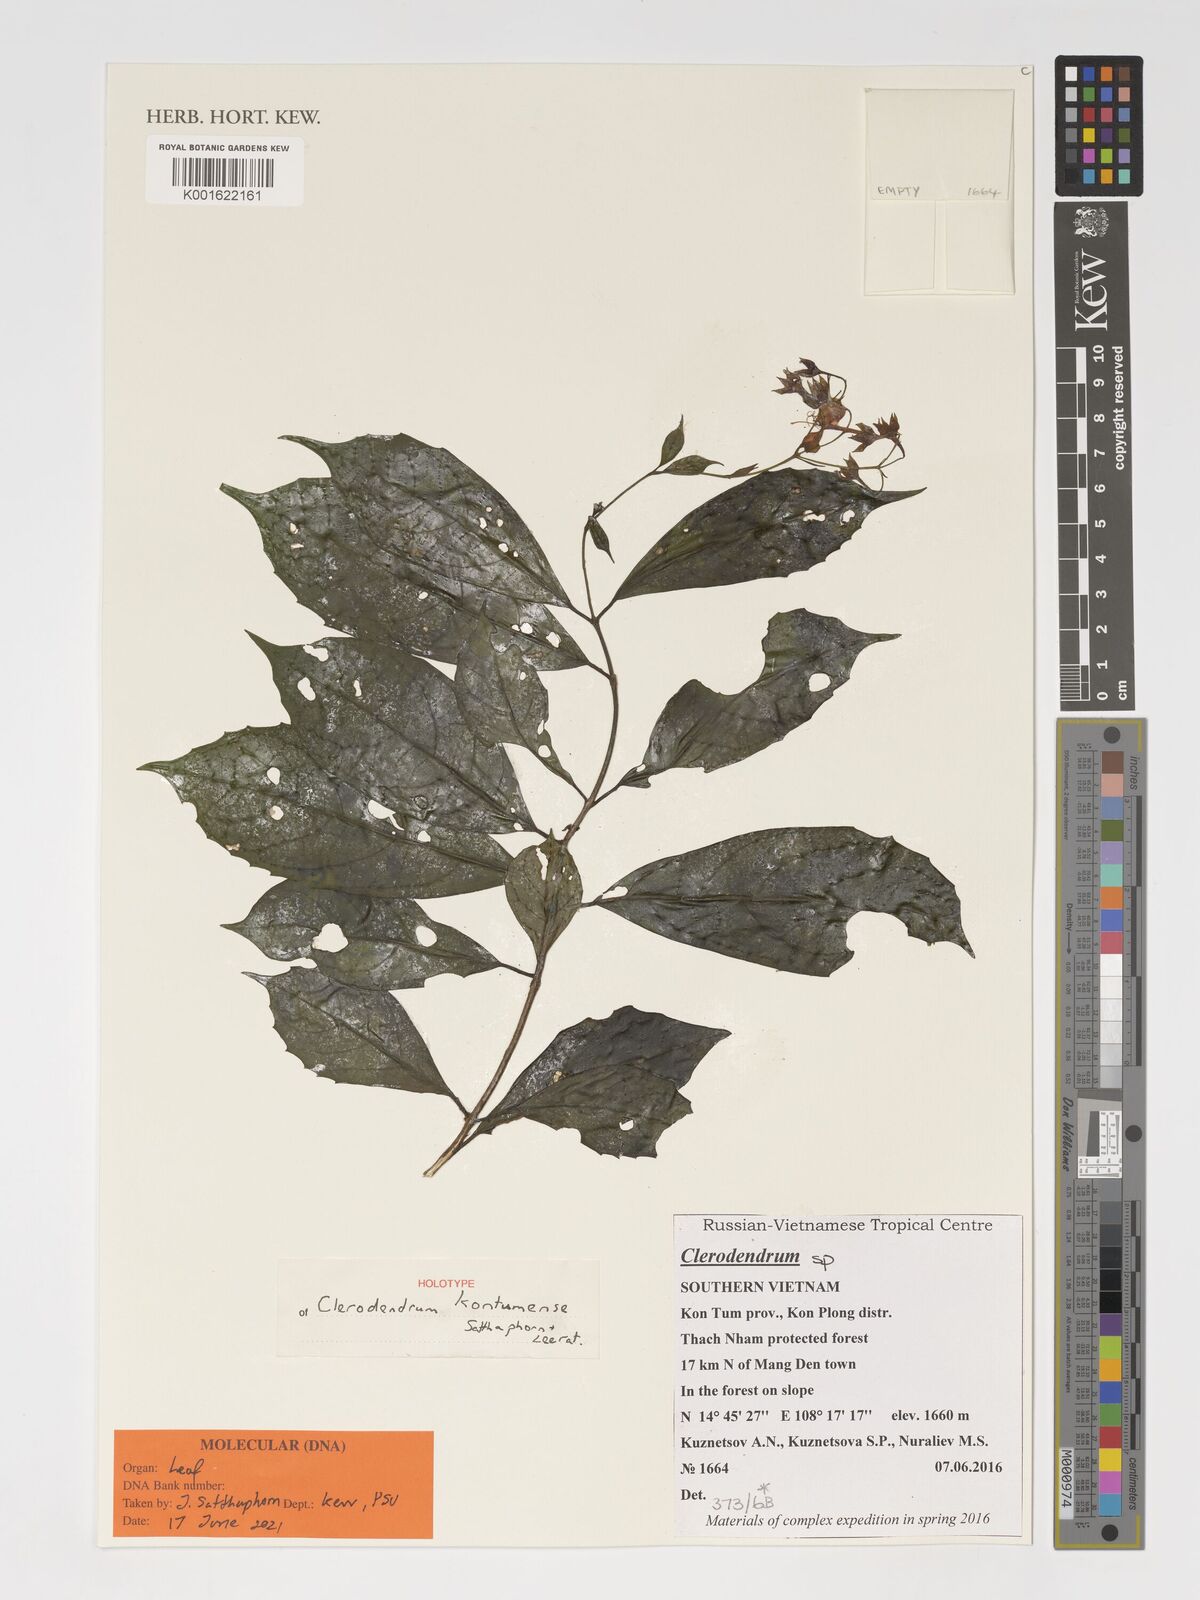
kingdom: Plantae
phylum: Tracheophyta
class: Magnoliopsida
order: Lamiales
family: Lamiaceae
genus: Clerodendrum
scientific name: Clerodendrum
